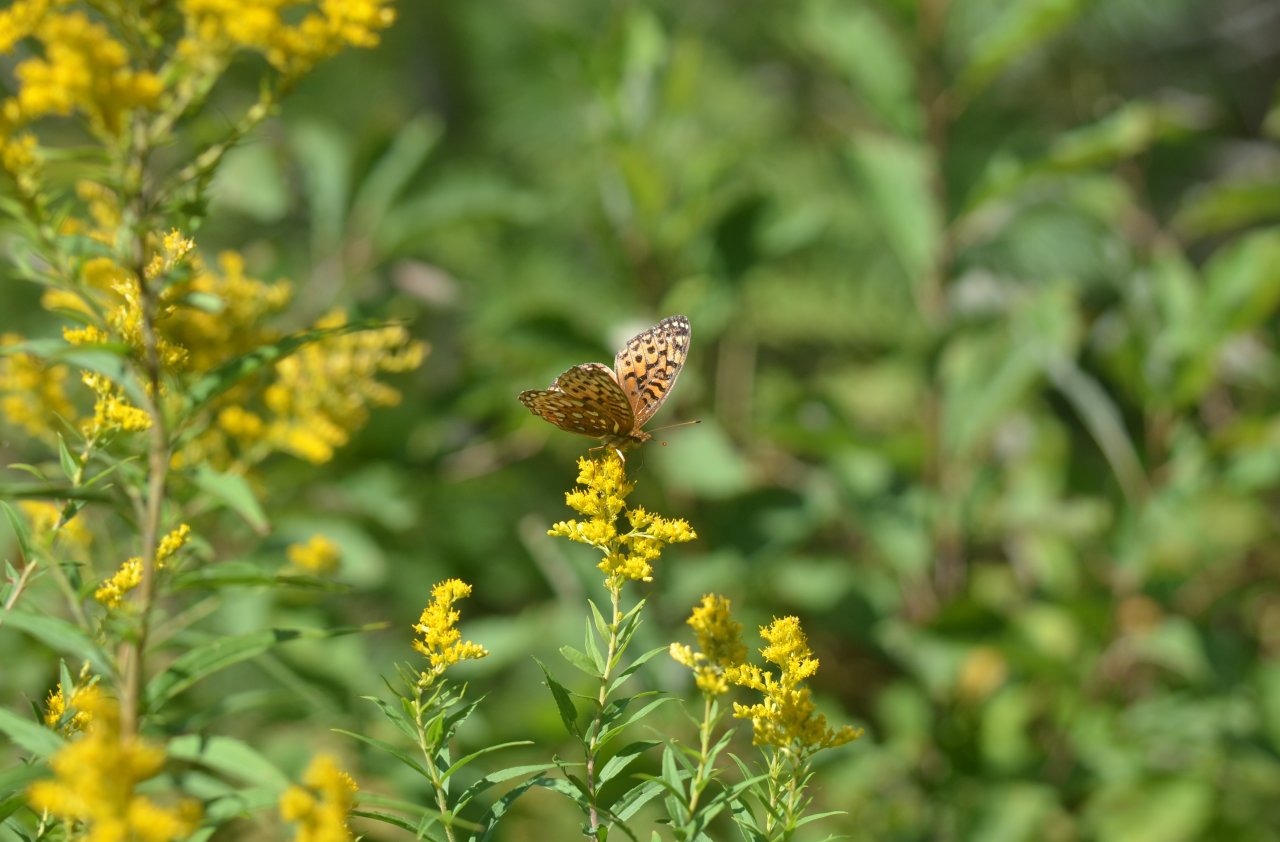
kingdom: Animalia
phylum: Arthropoda
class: Insecta
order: Lepidoptera
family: Nymphalidae
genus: Speyeria
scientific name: Speyeria aphrodite
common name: Aphrodite Fritillary
